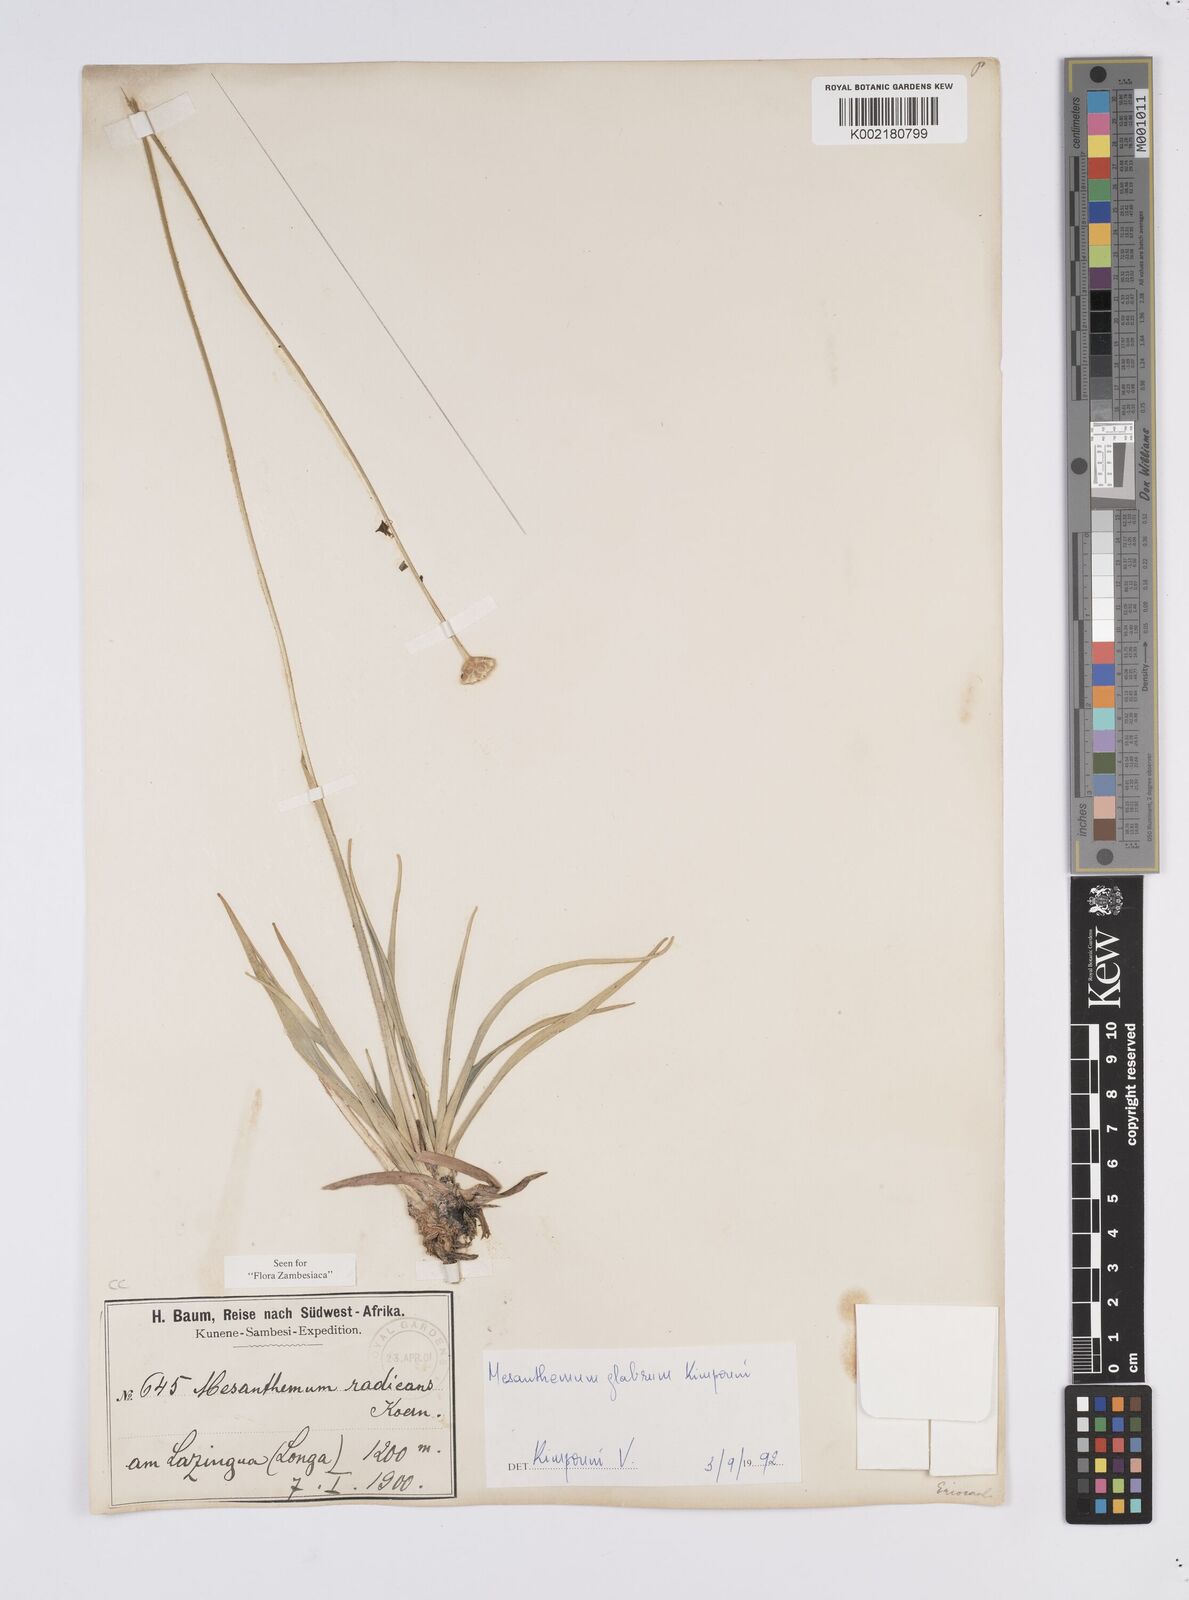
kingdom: Plantae
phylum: Tracheophyta
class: Liliopsida
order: Poales
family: Eriocaulaceae
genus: Mesanthemum
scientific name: Mesanthemum glabrum
